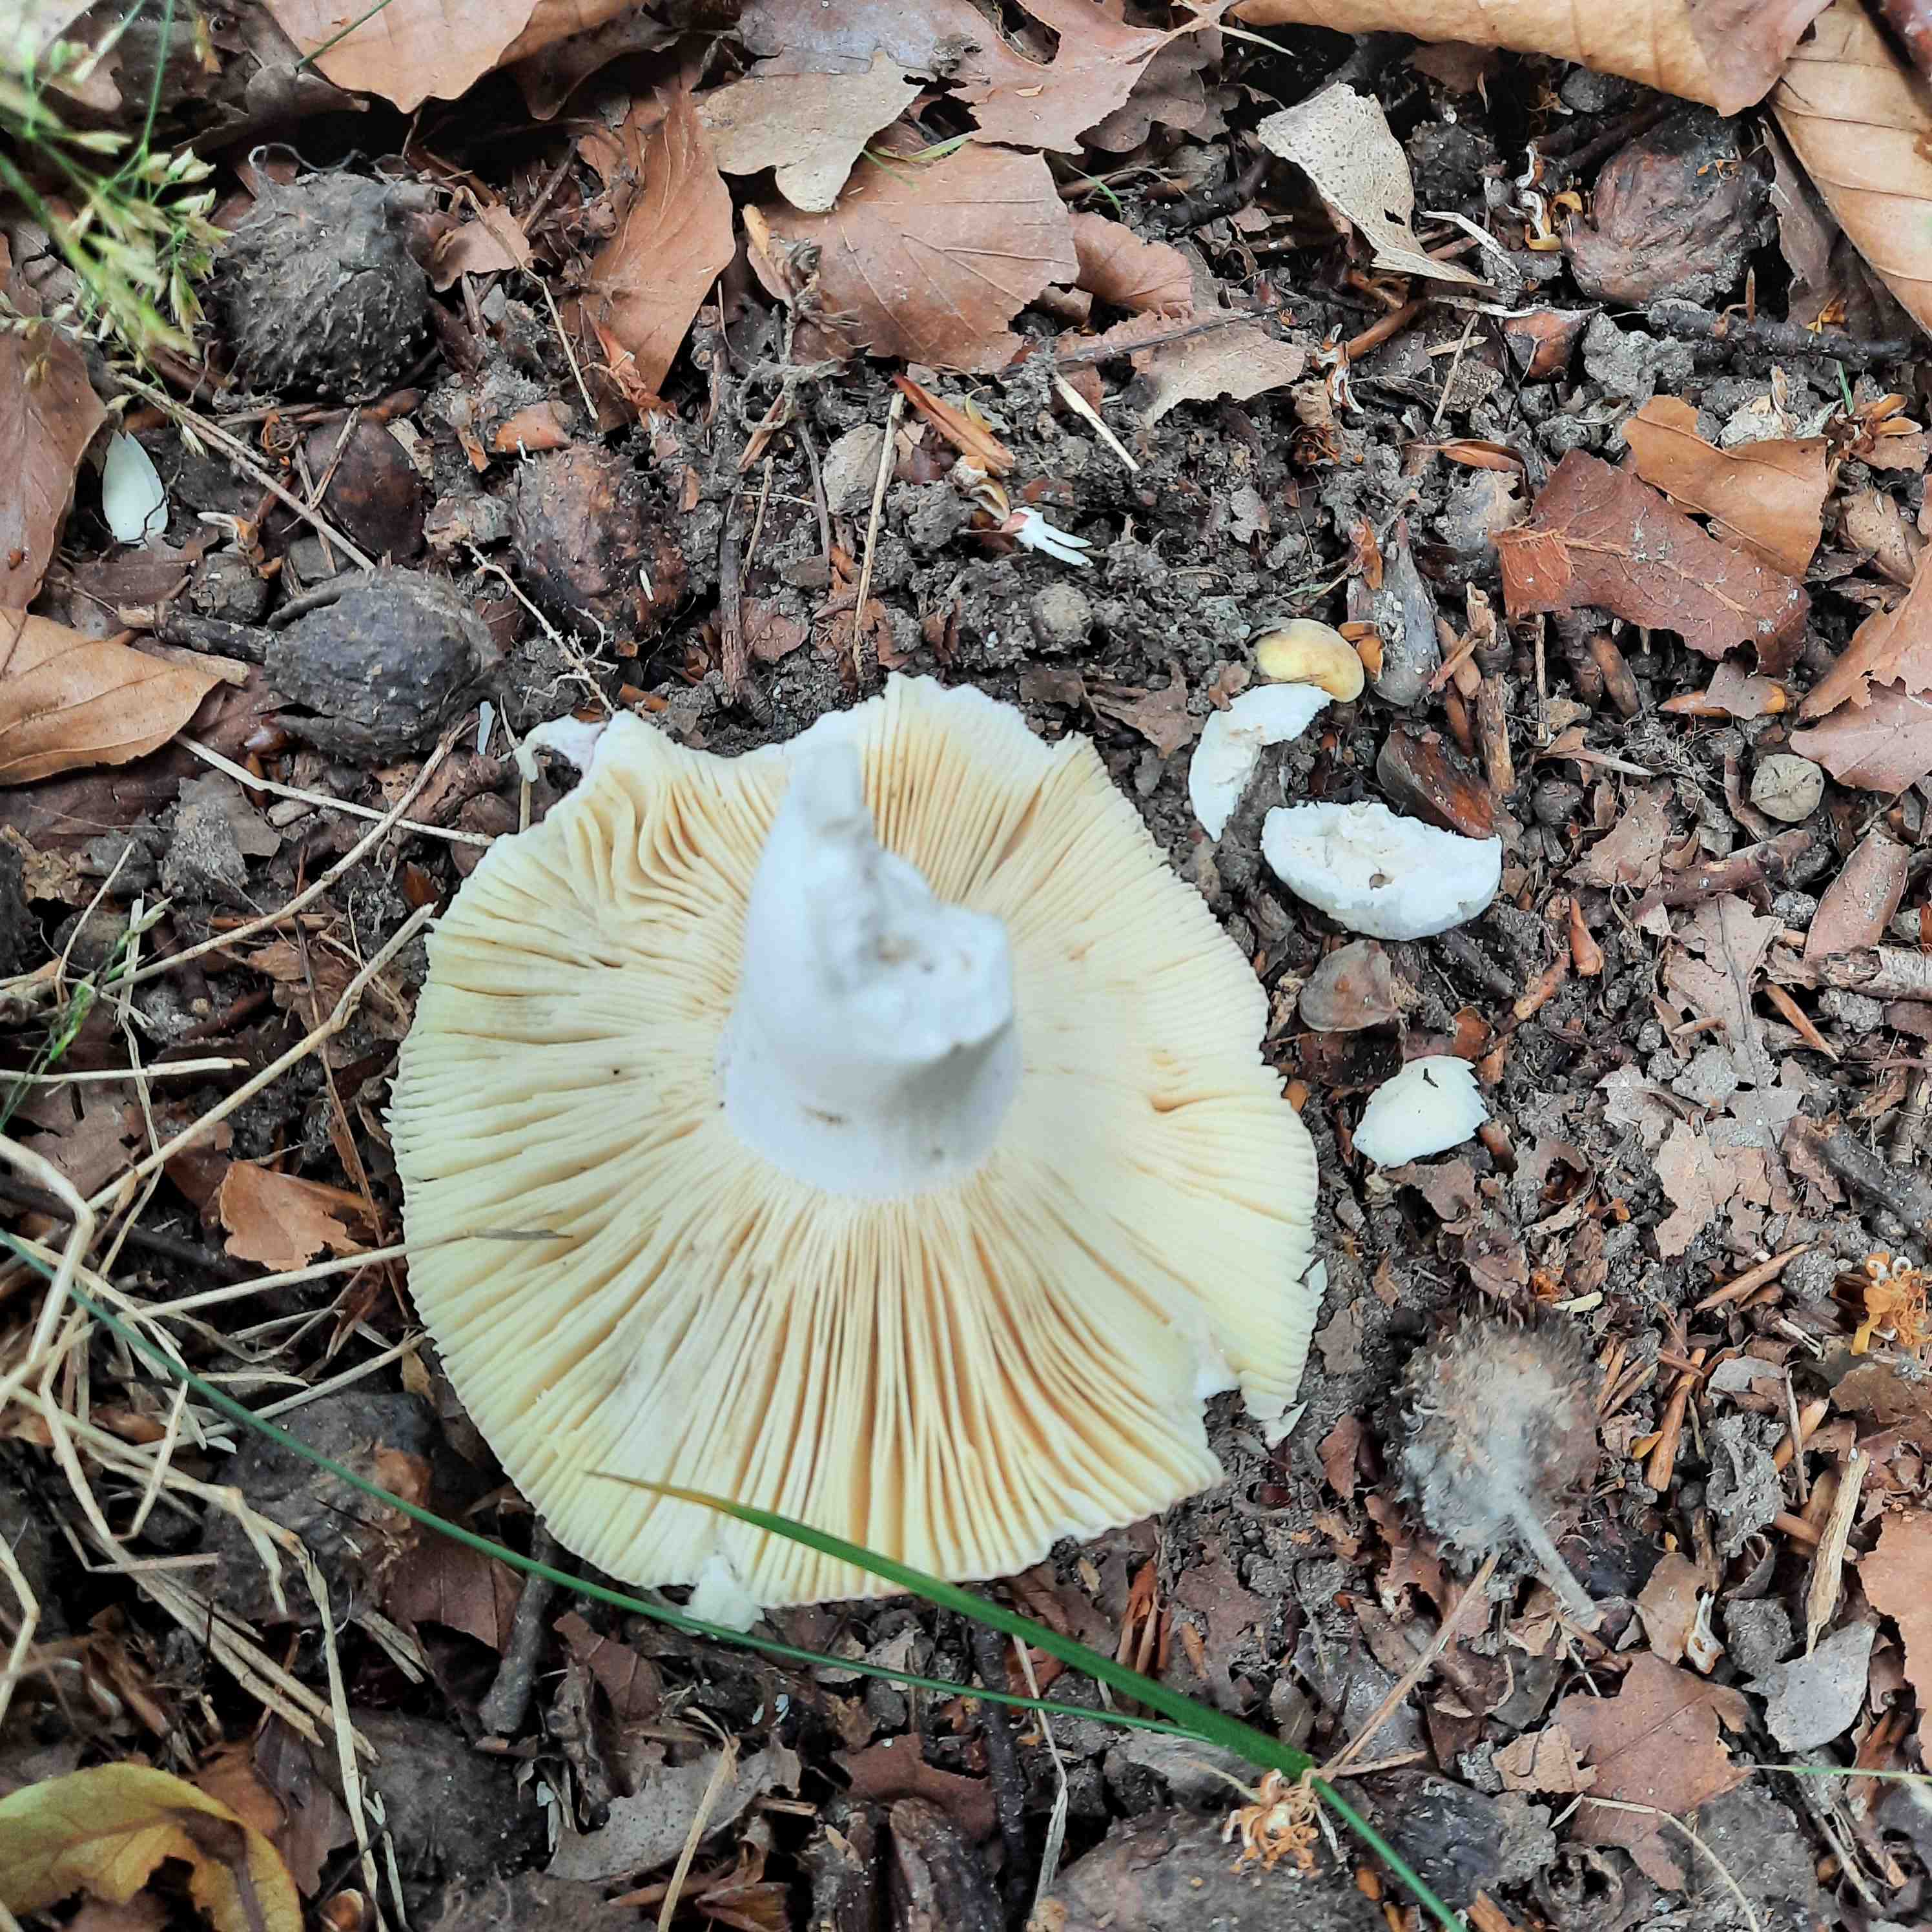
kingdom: Fungi
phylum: Basidiomycota
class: Agaricomycetes
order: Russulales
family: Russulaceae
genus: Russula
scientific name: Russula
